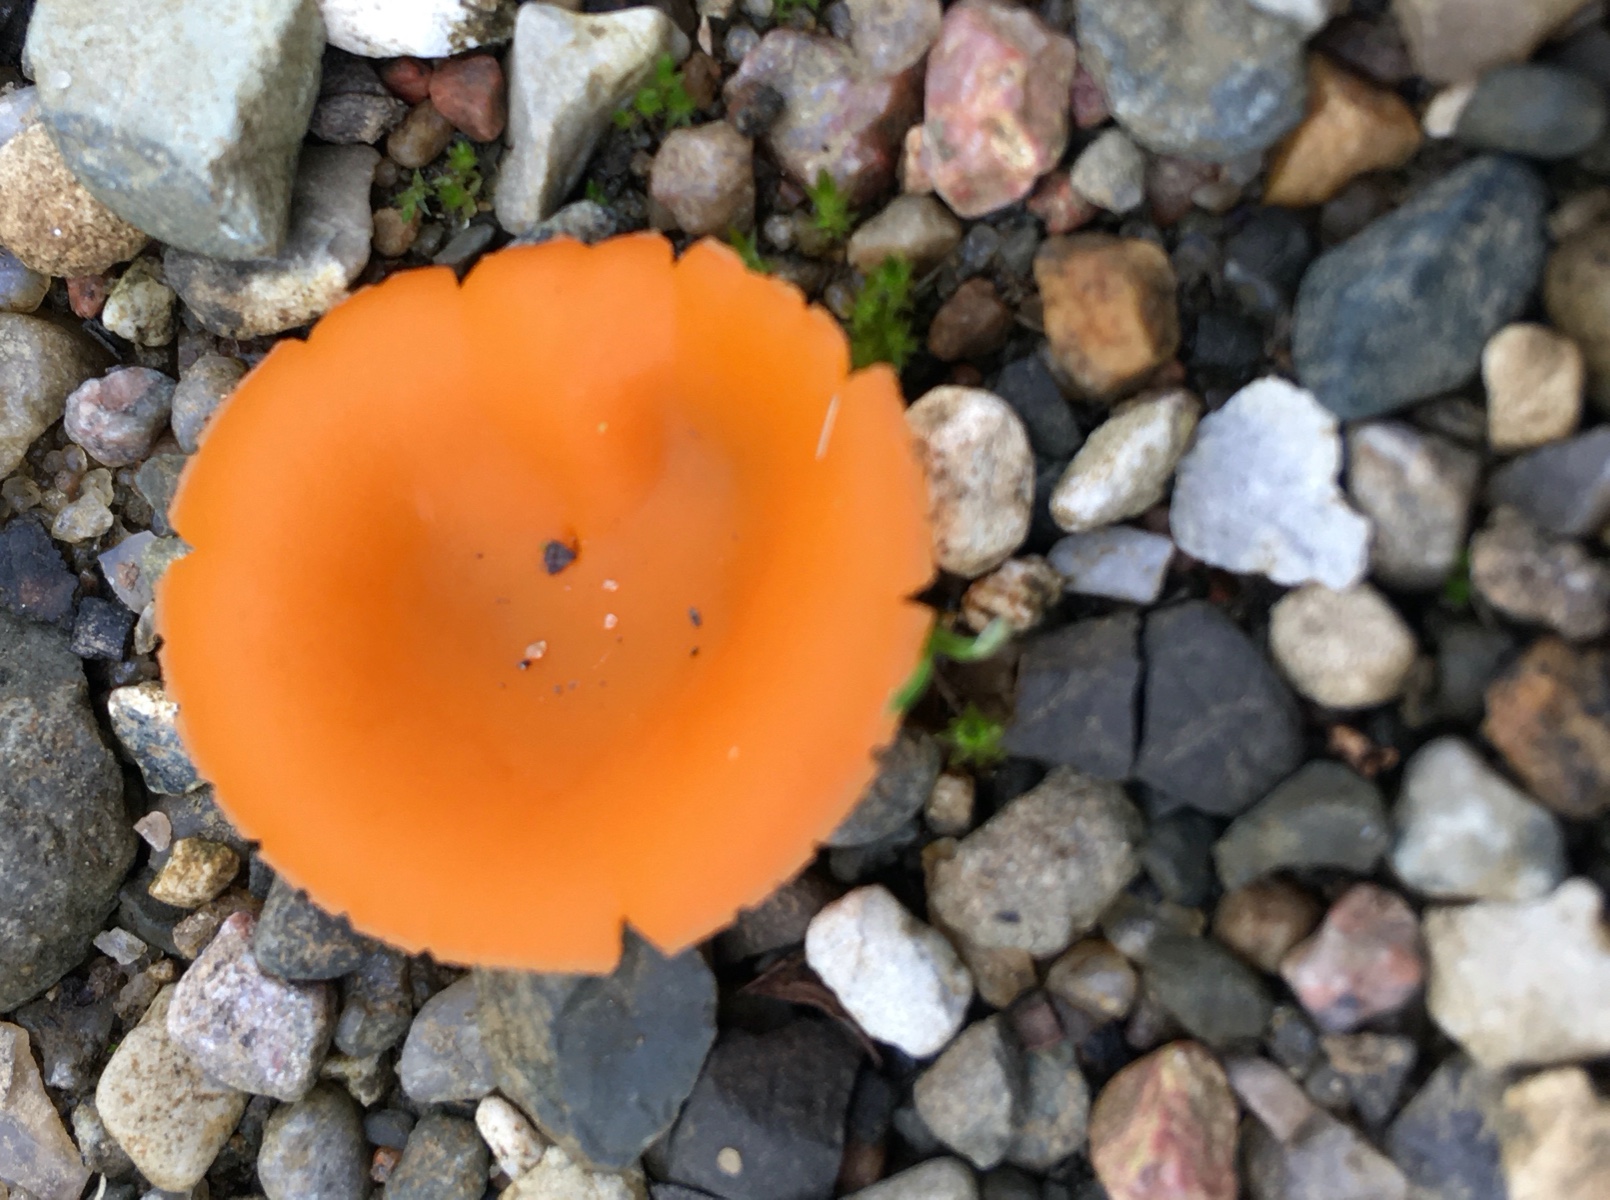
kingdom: Fungi
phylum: Ascomycota
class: Pezizomycetes
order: Pezizales
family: Pyronemataceae
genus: Aleuria
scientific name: Aleuria aurantia
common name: almindelig orangebæger
